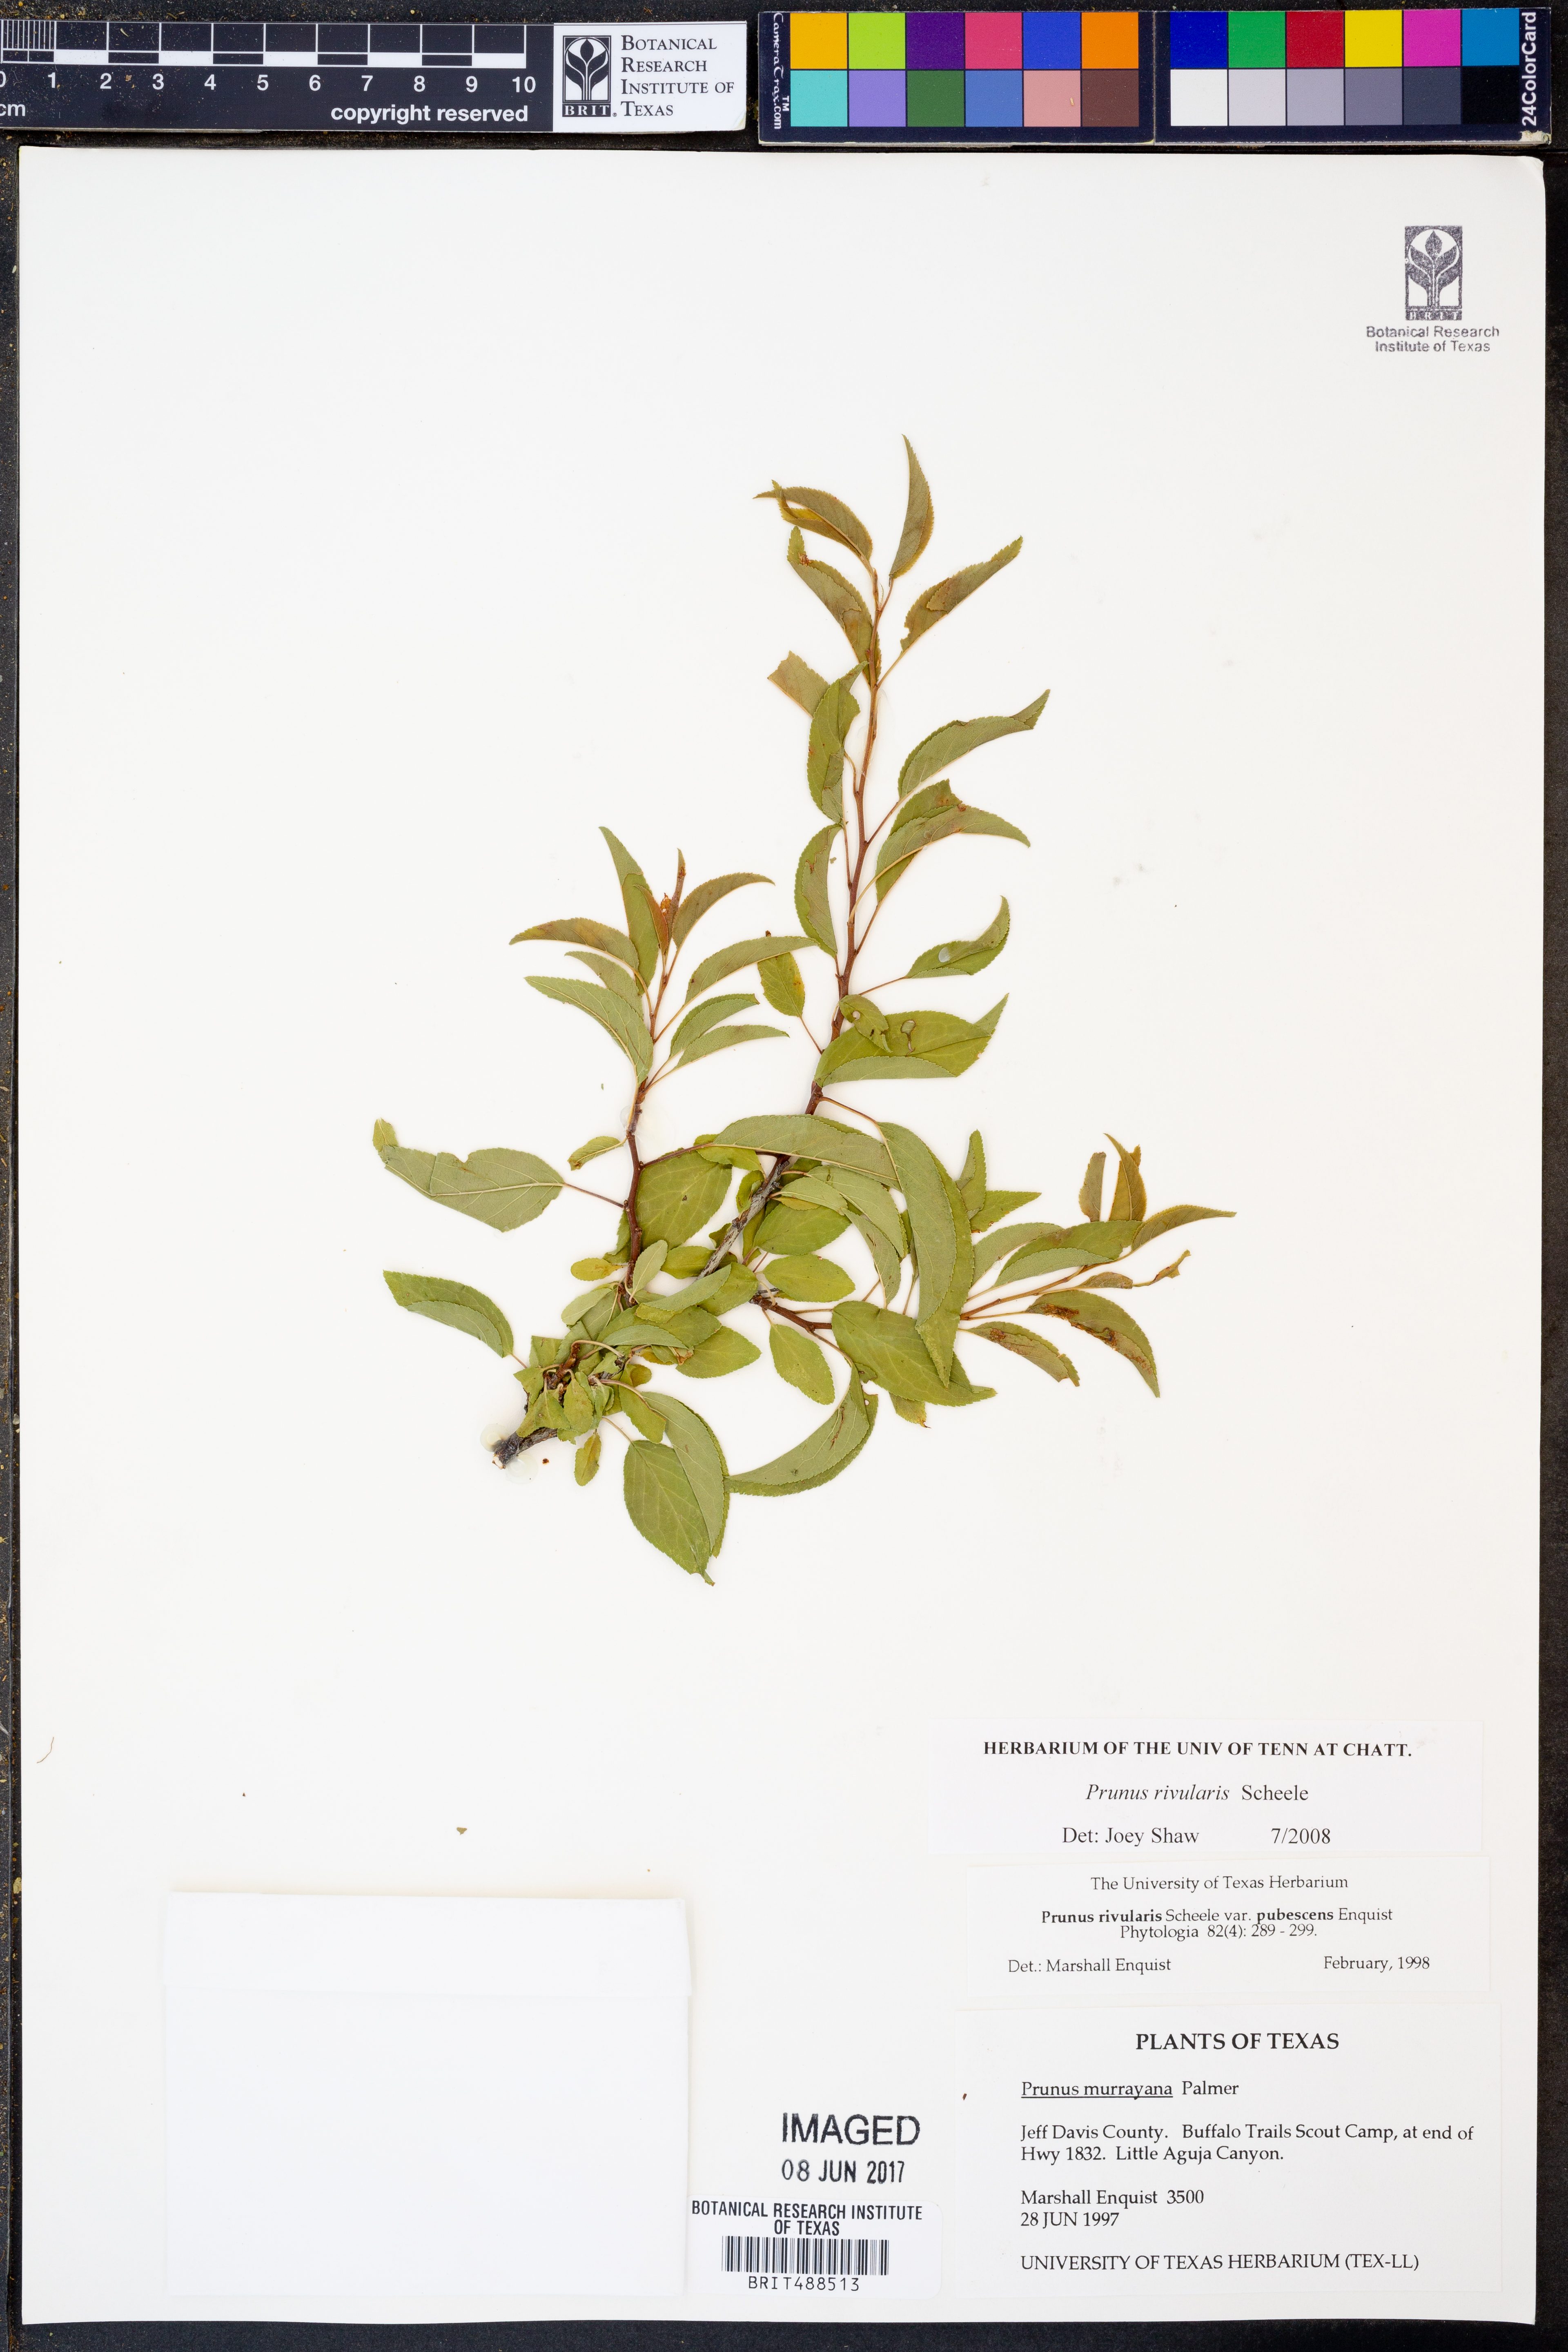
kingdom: Plantae
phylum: Tracheophyta
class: Magnoliopsida
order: Rosales
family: Rosaceae
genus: Prunus
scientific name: Prunus rivularis
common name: Creek plum
